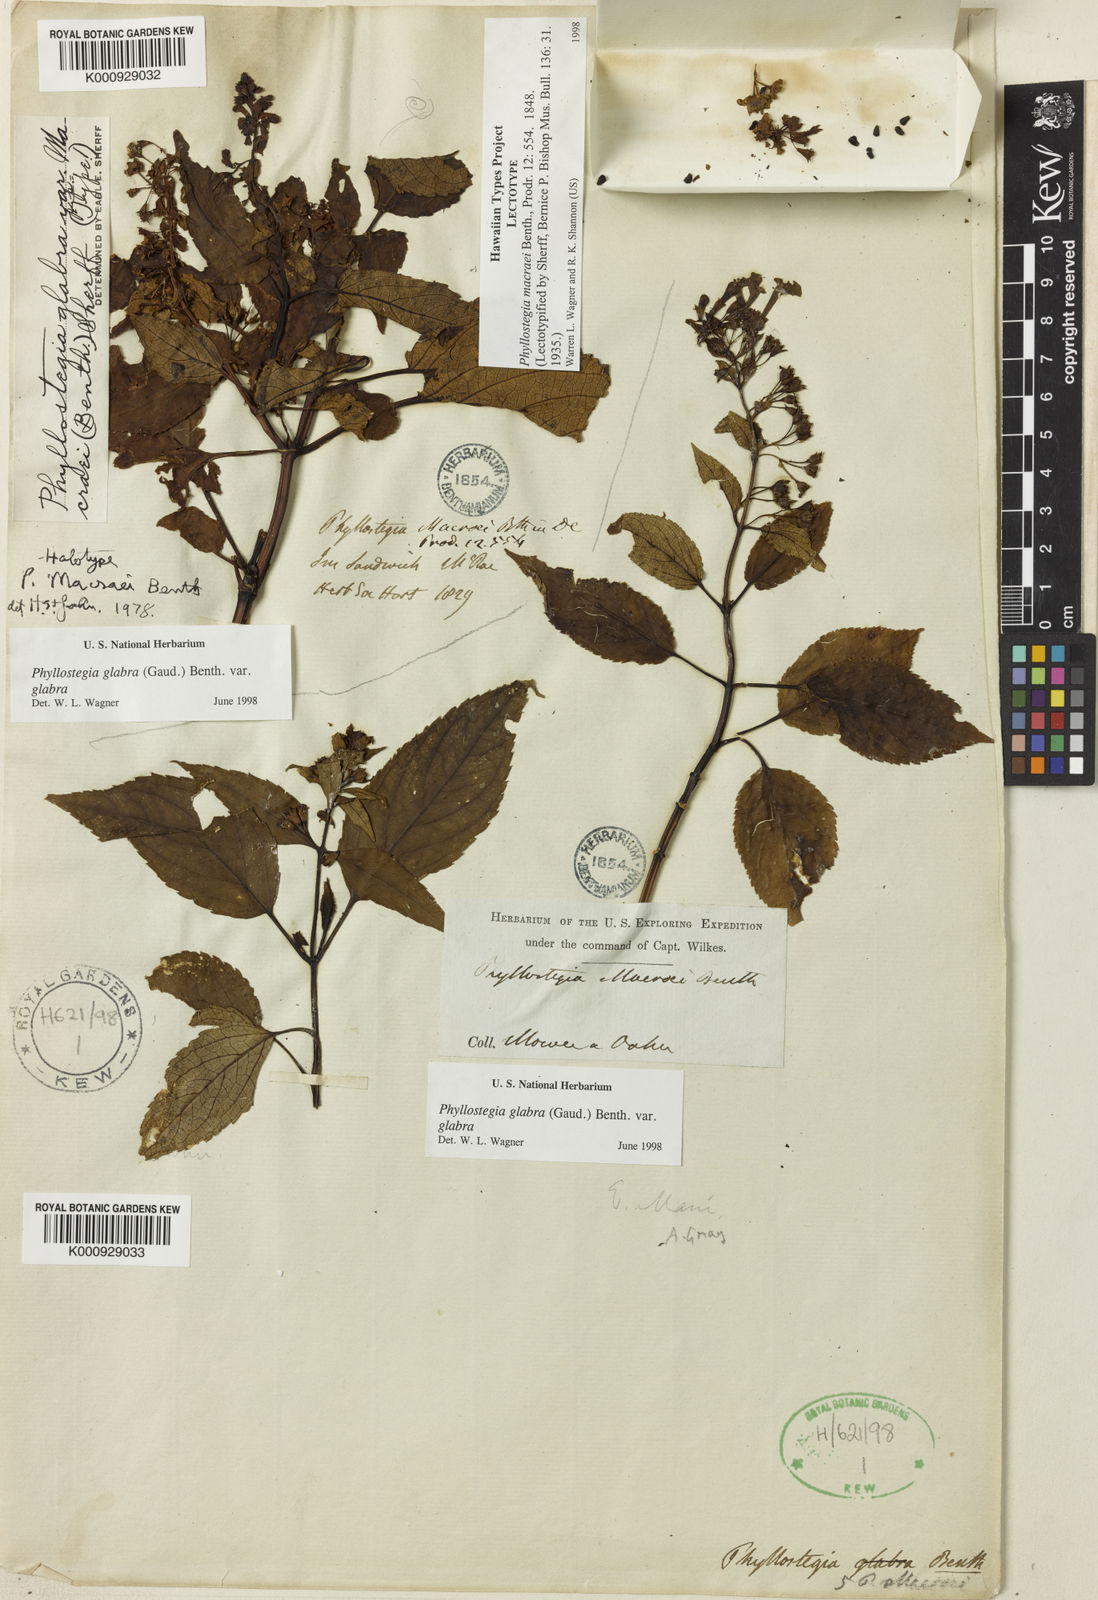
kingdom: Plantae
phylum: Tracheophyta
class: Magnoliopsida
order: Lamiales
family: Lamiaceae
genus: Phyllostegia
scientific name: Phyllostegia glabra
